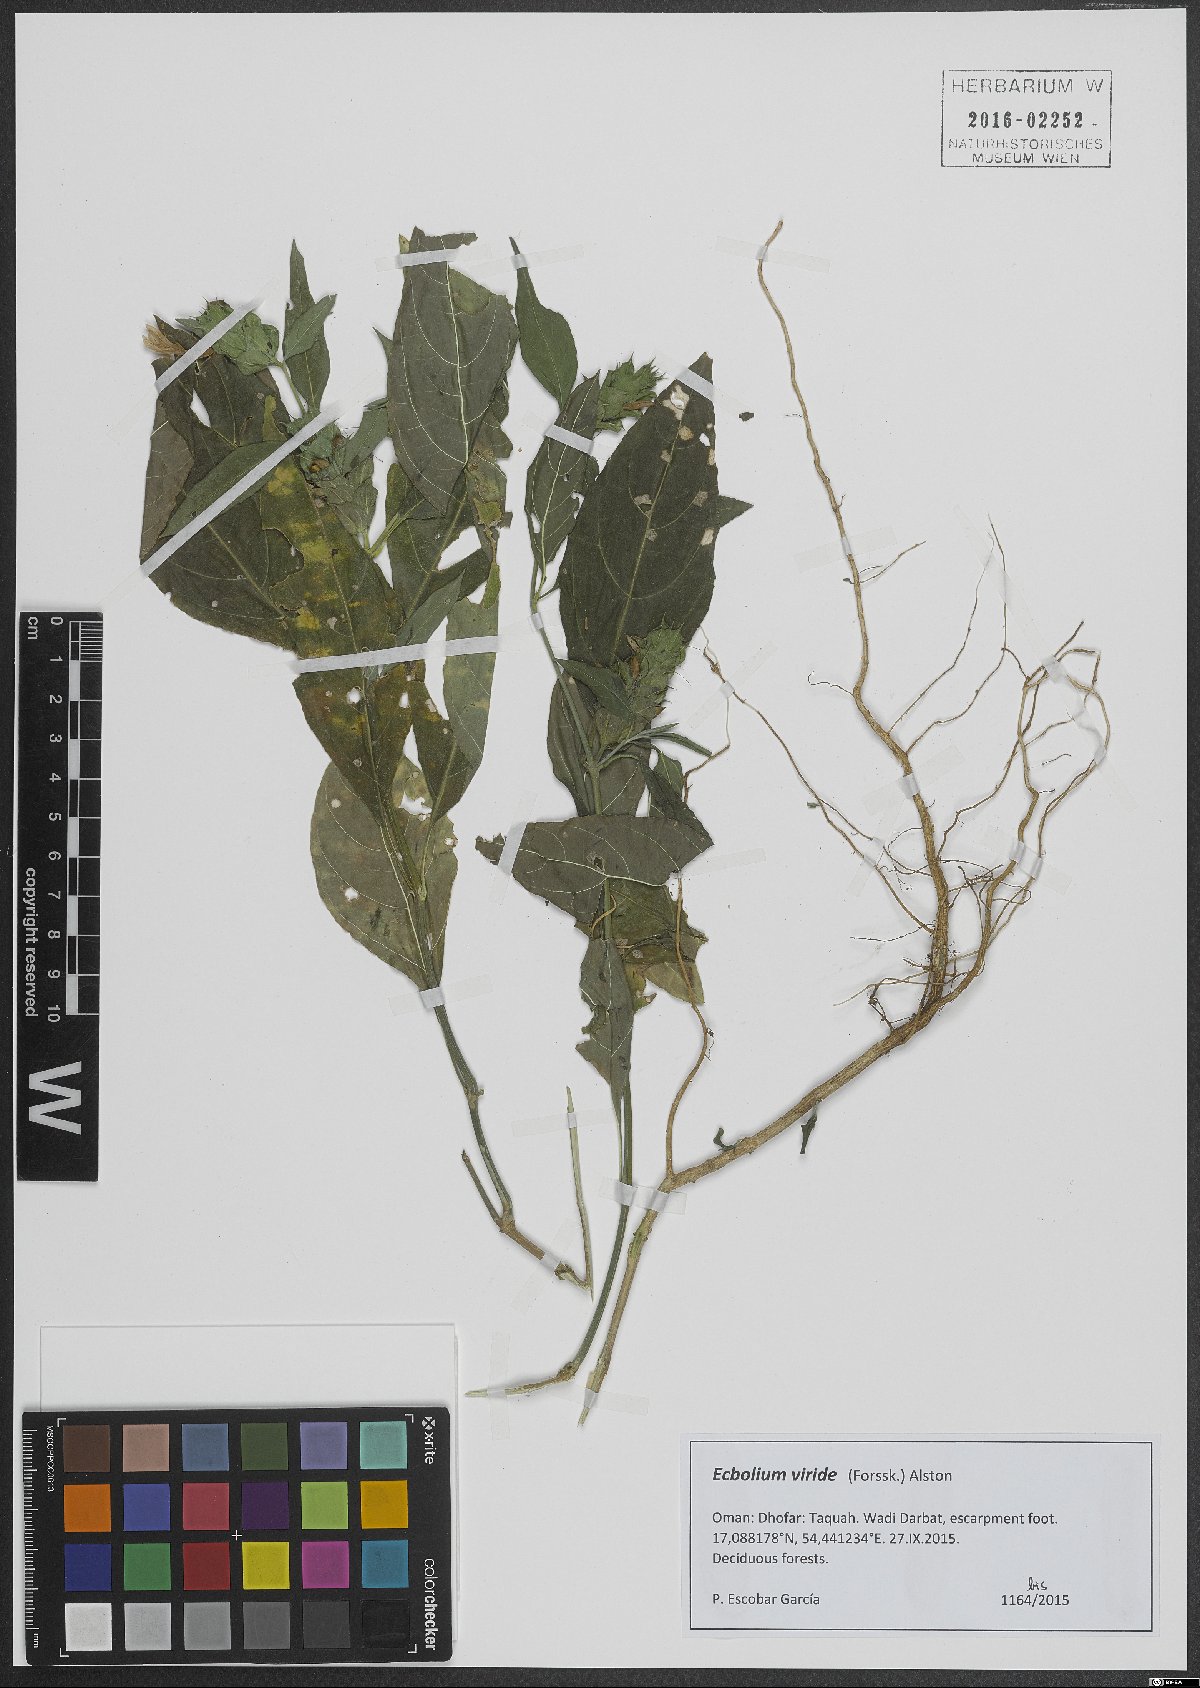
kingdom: Plantae
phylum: Tracheophyta
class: Magnoliopsida
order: Lamiales
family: Acanthaceae
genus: Ecbolium
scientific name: Ecbolium viride
